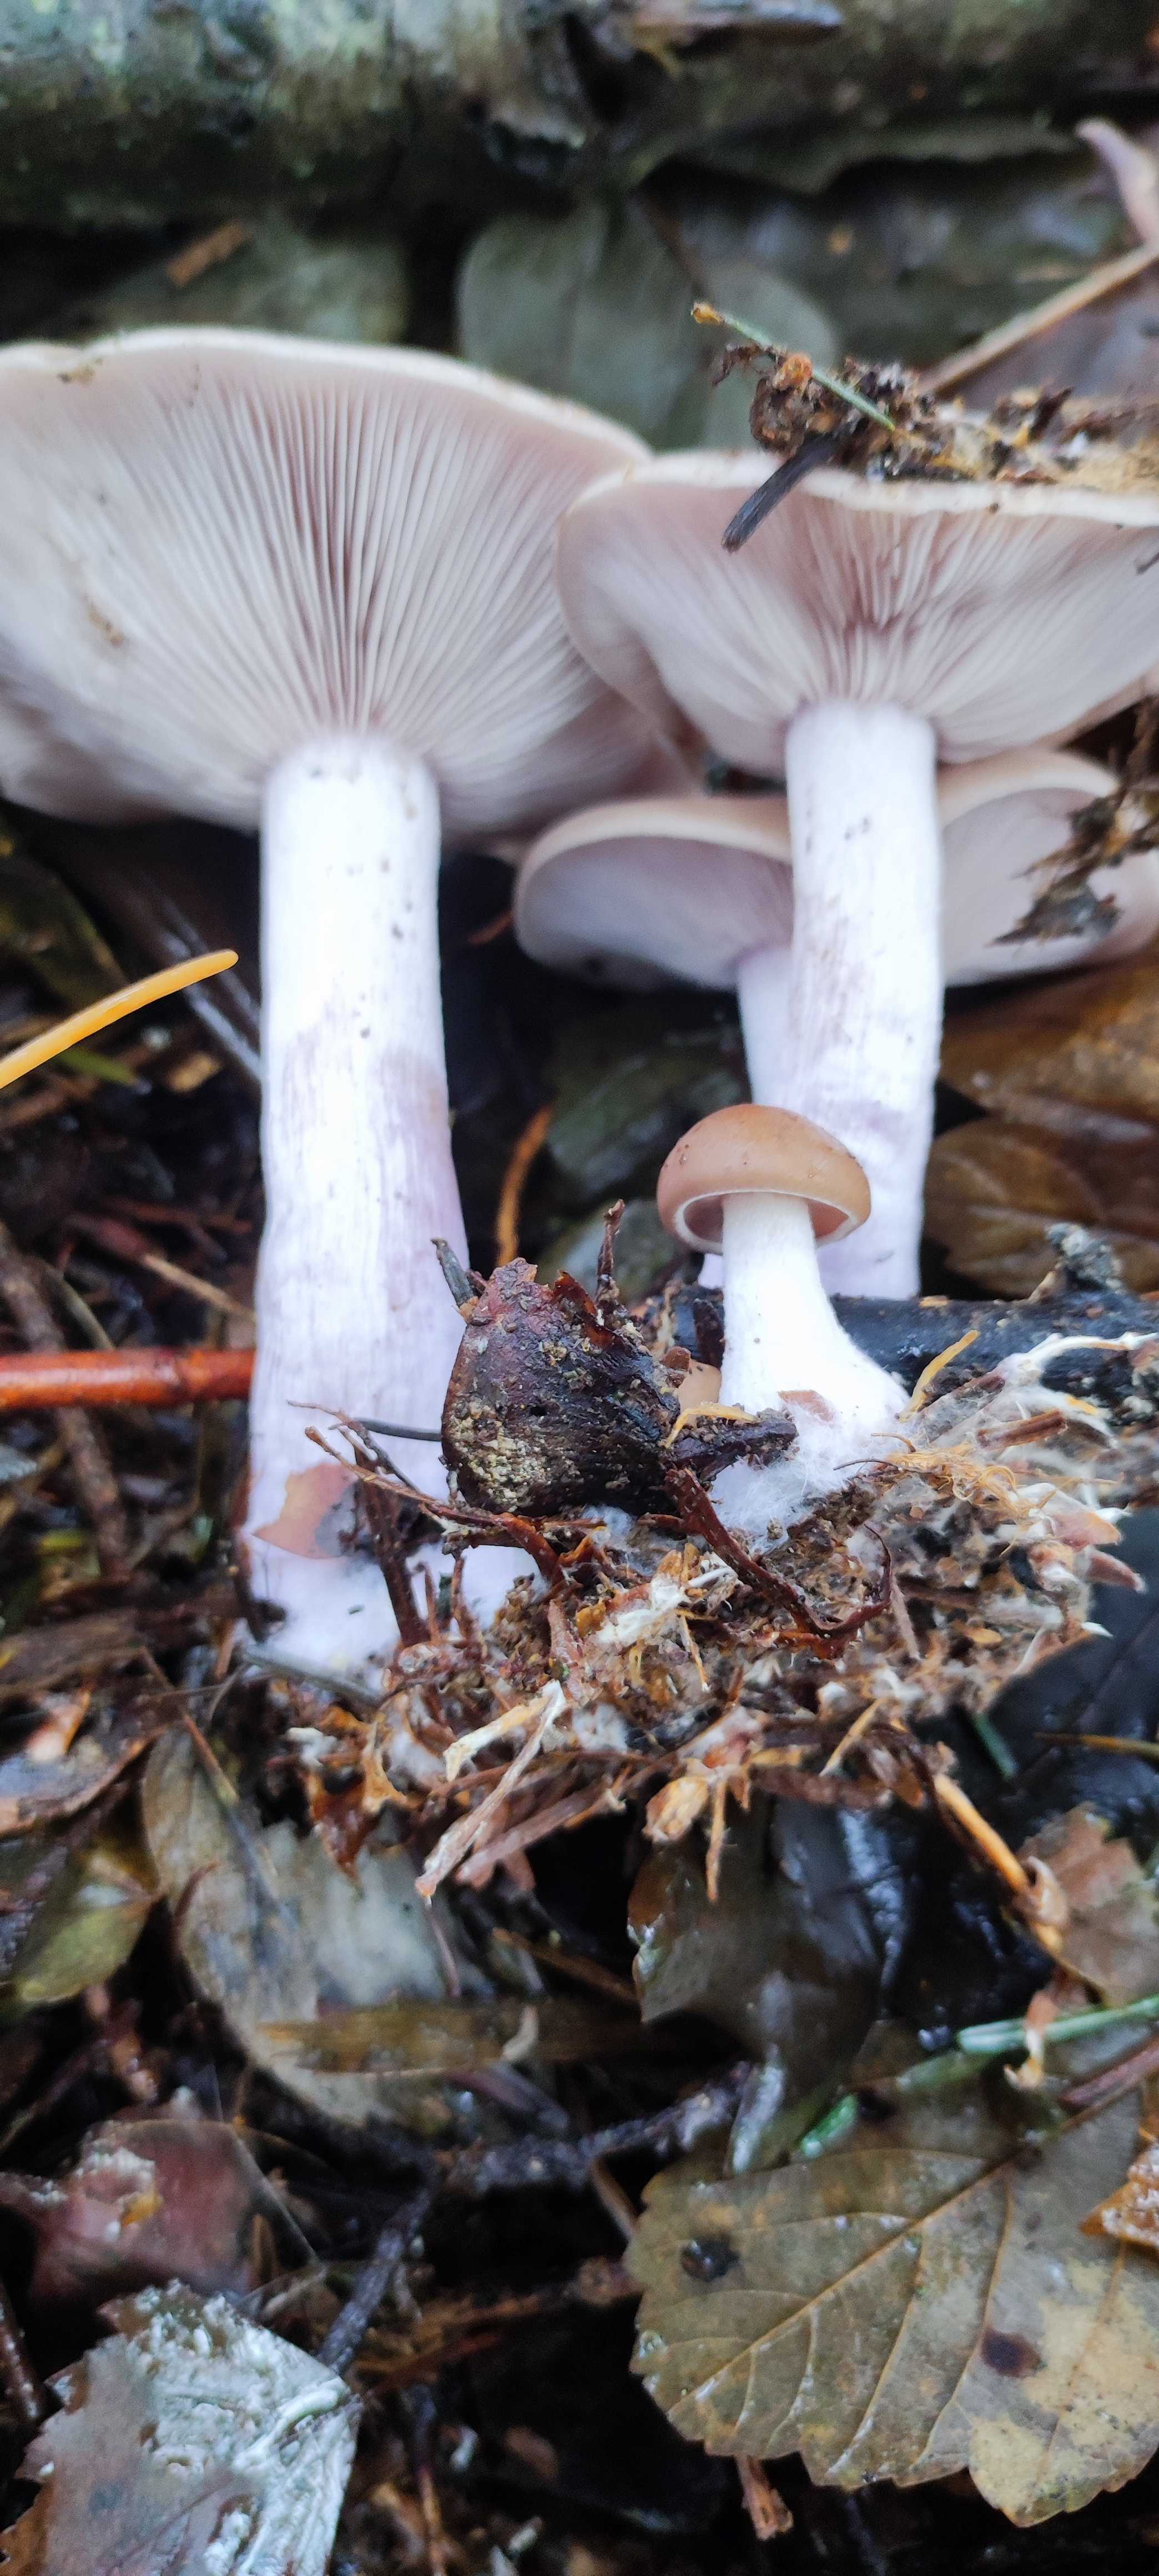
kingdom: Fungi
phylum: Basidiomycota
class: Agaricomycetes
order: Agaricales
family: Tricholomataceae
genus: Lepista
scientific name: Lepista nuda
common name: violet hekseringshat
